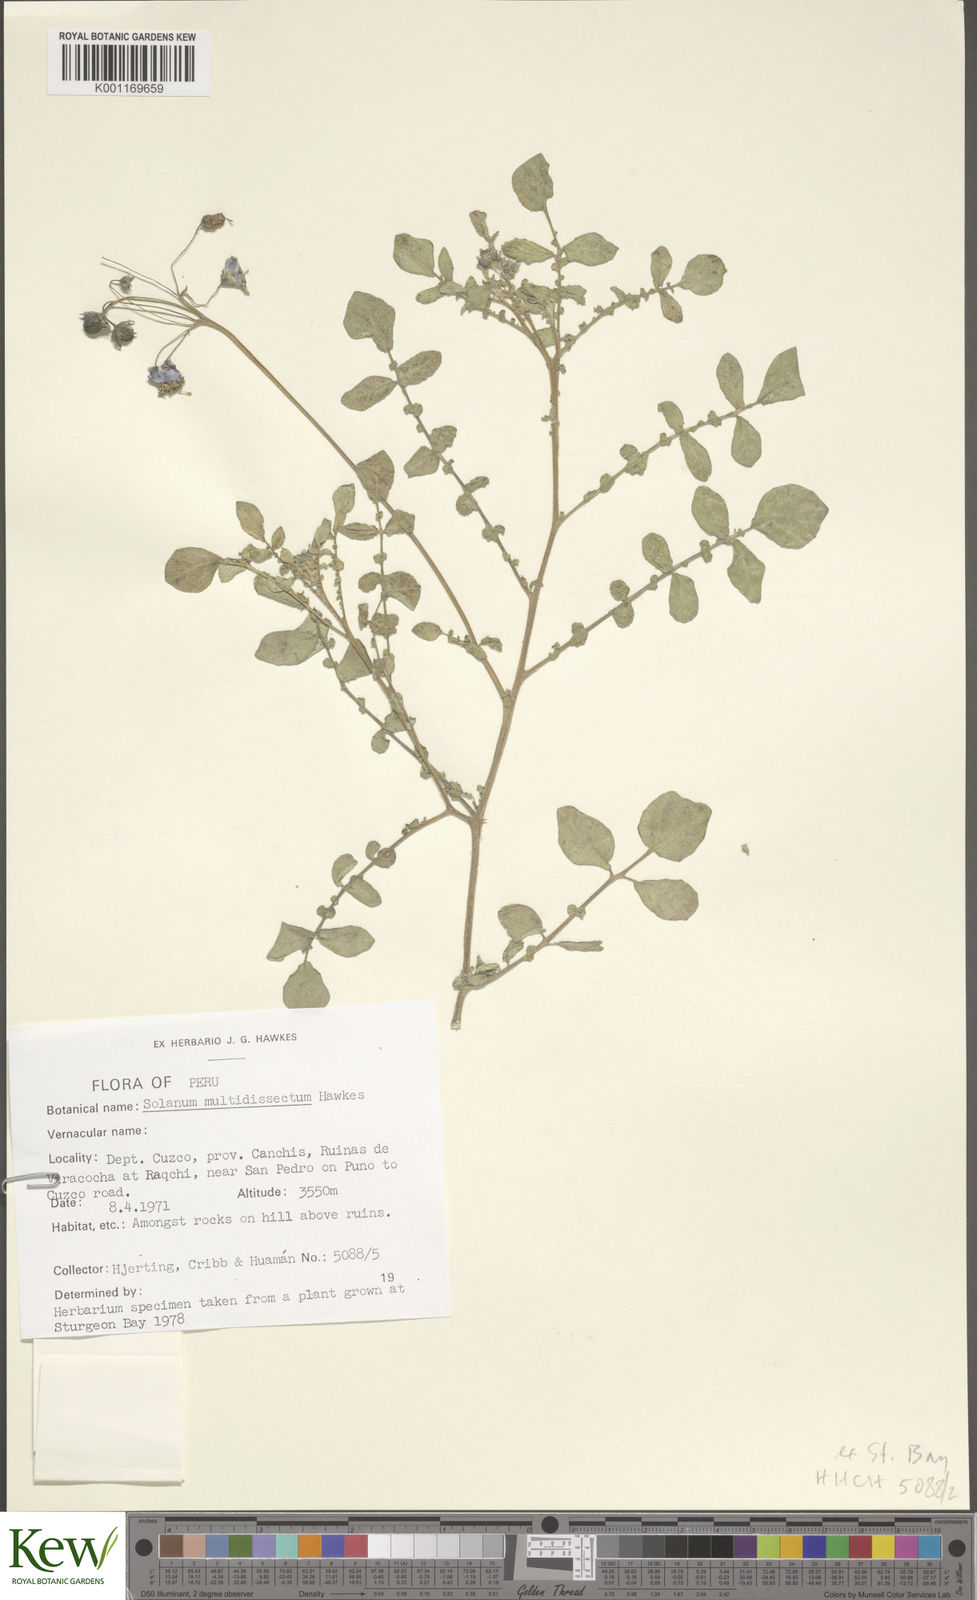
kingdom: Plantae
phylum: Tracheophyta
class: Magnoliopsida
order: Solanales
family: Solanaceae
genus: Solanum
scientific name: Solanum candolleanum
